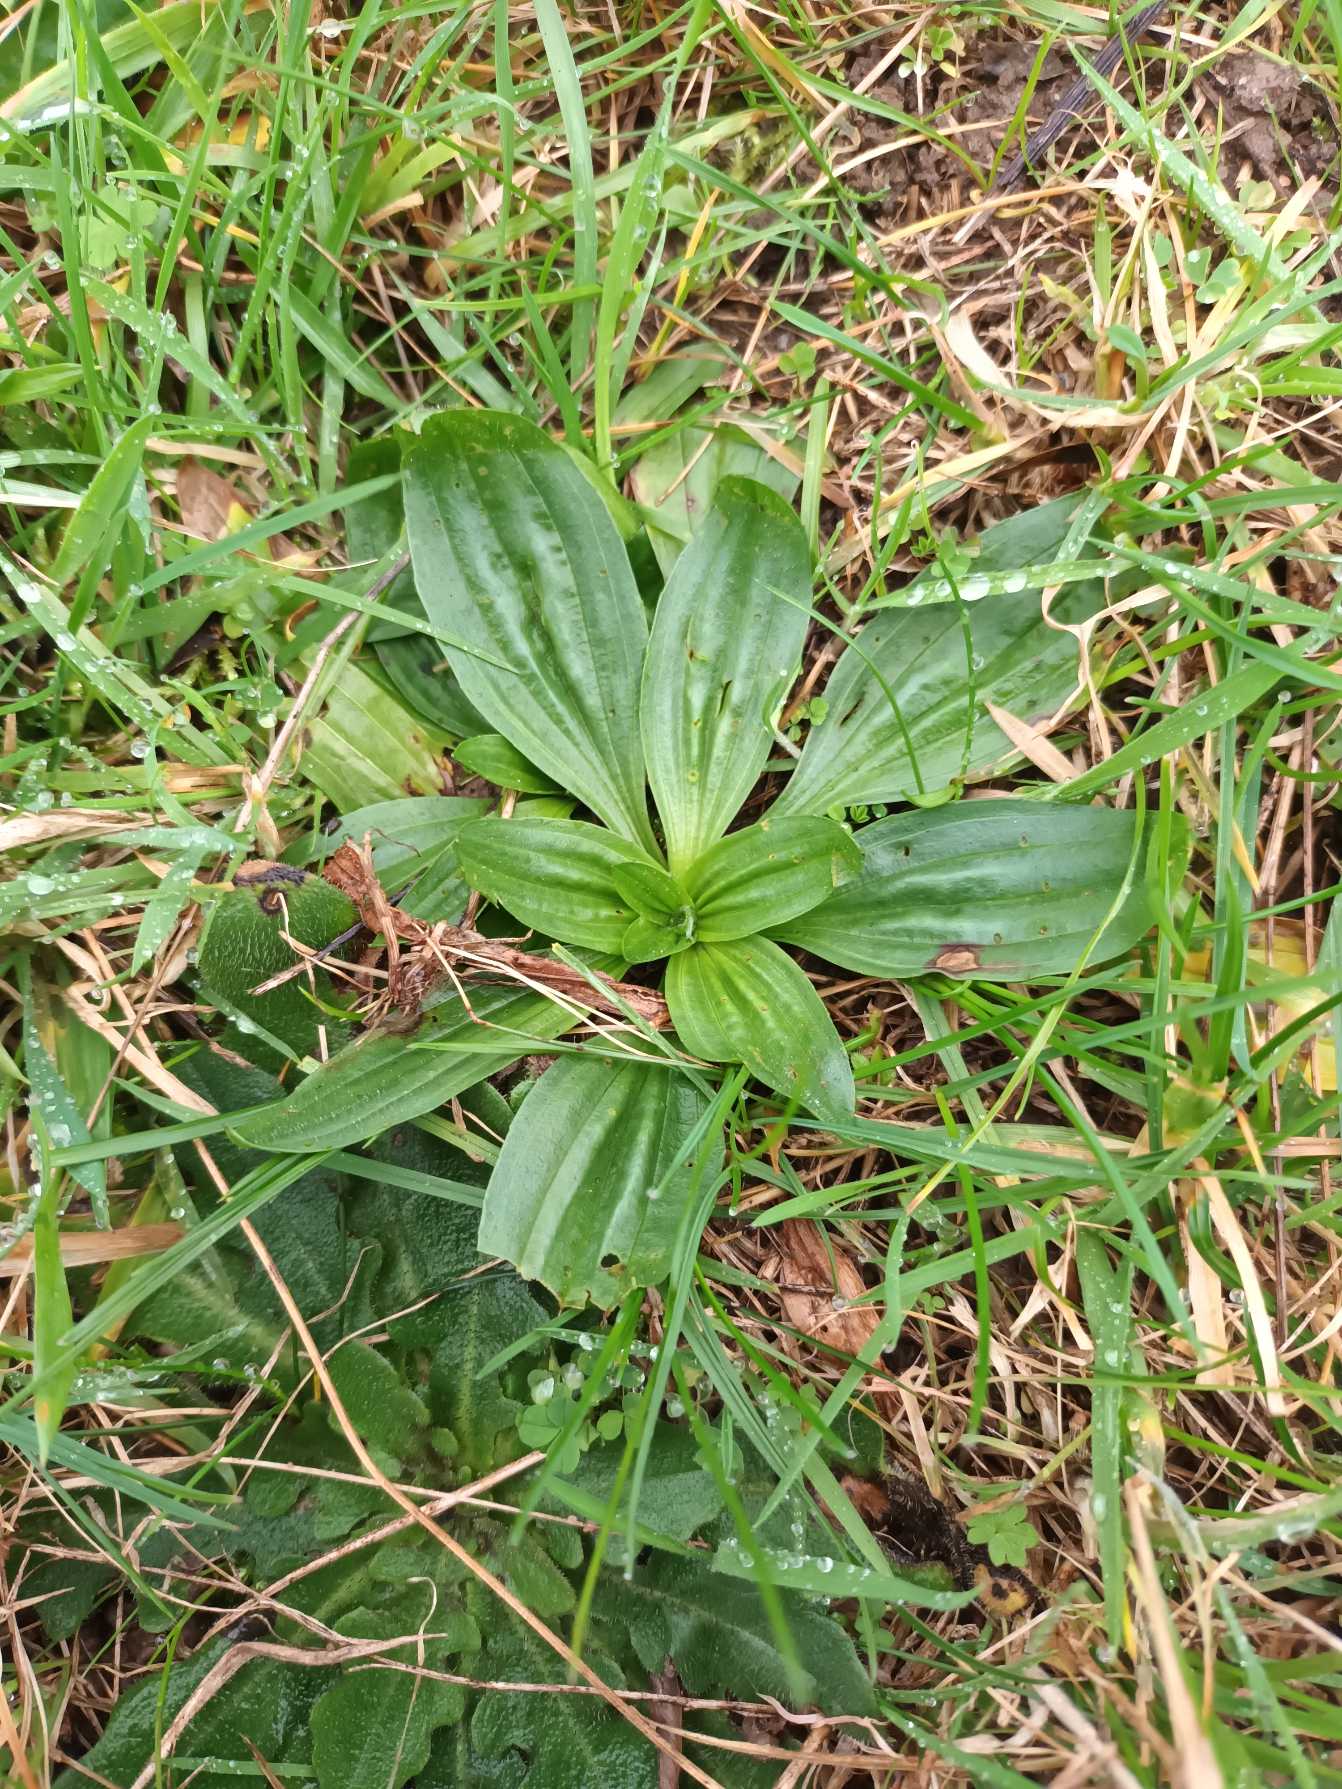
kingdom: Plantae
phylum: Tracheophyta
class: Magnoliopsida
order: Lamiales
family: Plantaginaceae
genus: Plantago
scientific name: Plantago lanceolata
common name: Lancet-vejbred
